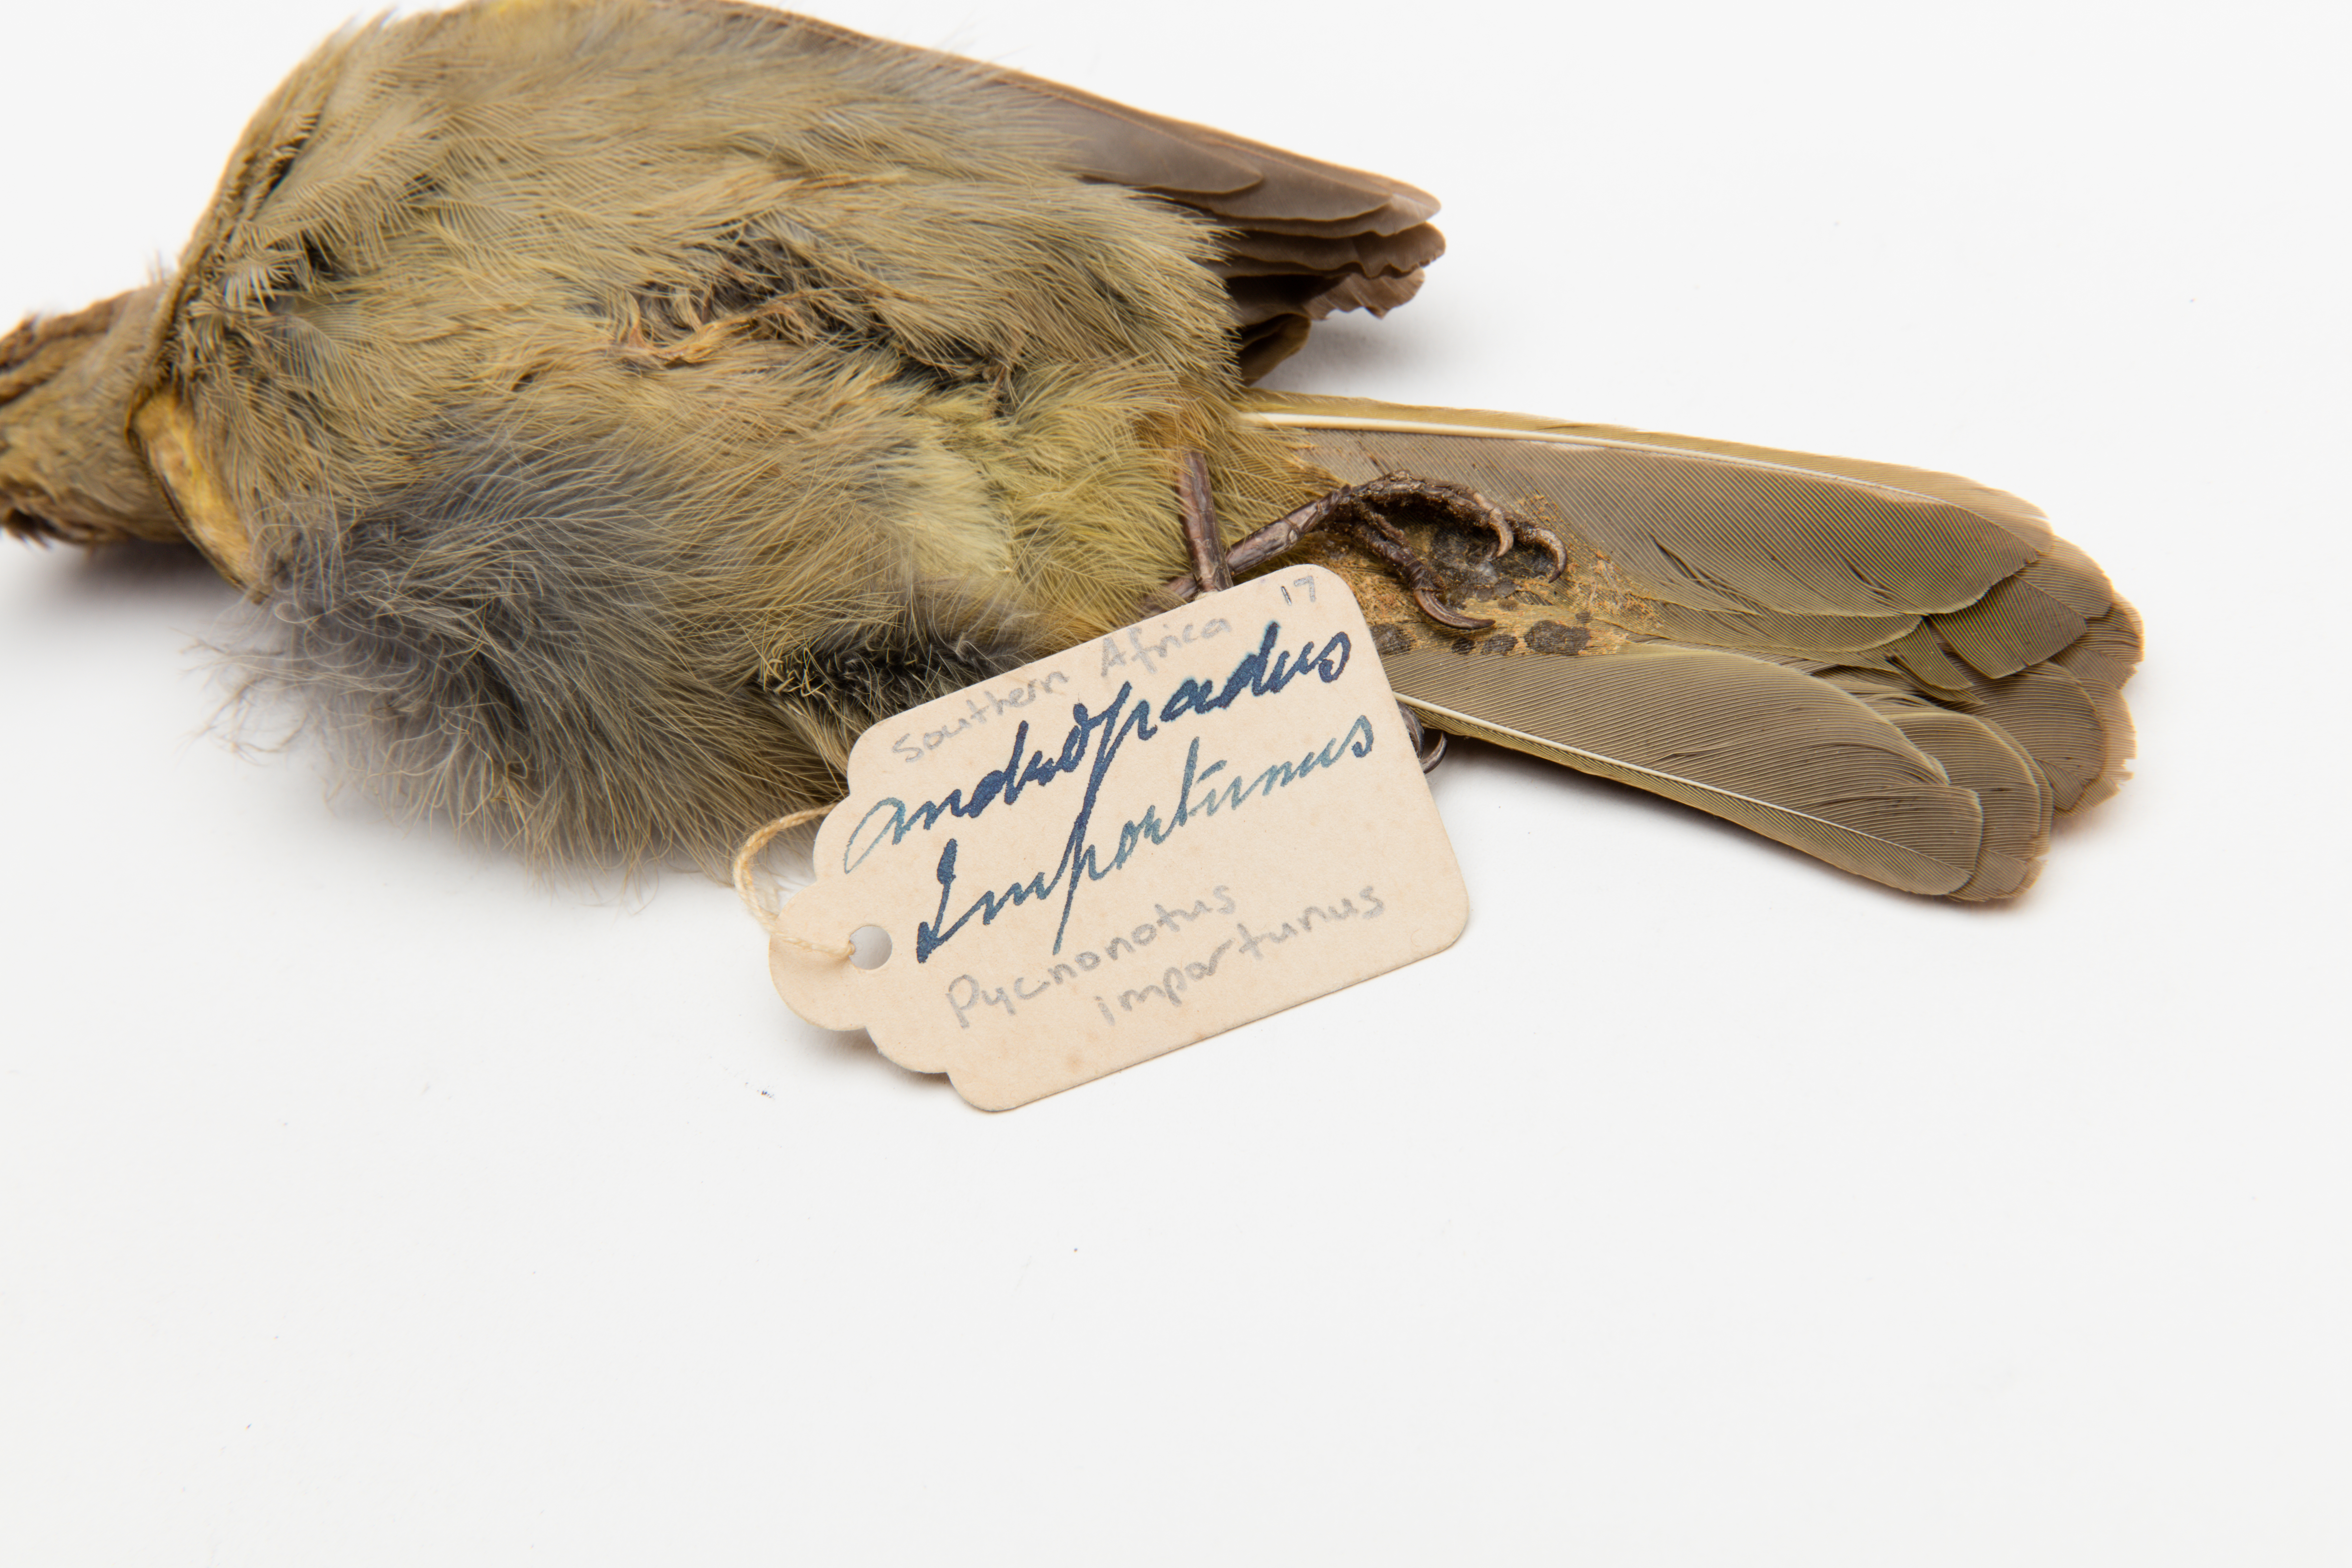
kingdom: Animalia
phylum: Chordata
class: Aves
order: Passeriformes
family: Pycnonotidae
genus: Pycnonotus
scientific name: Pycnonotus
